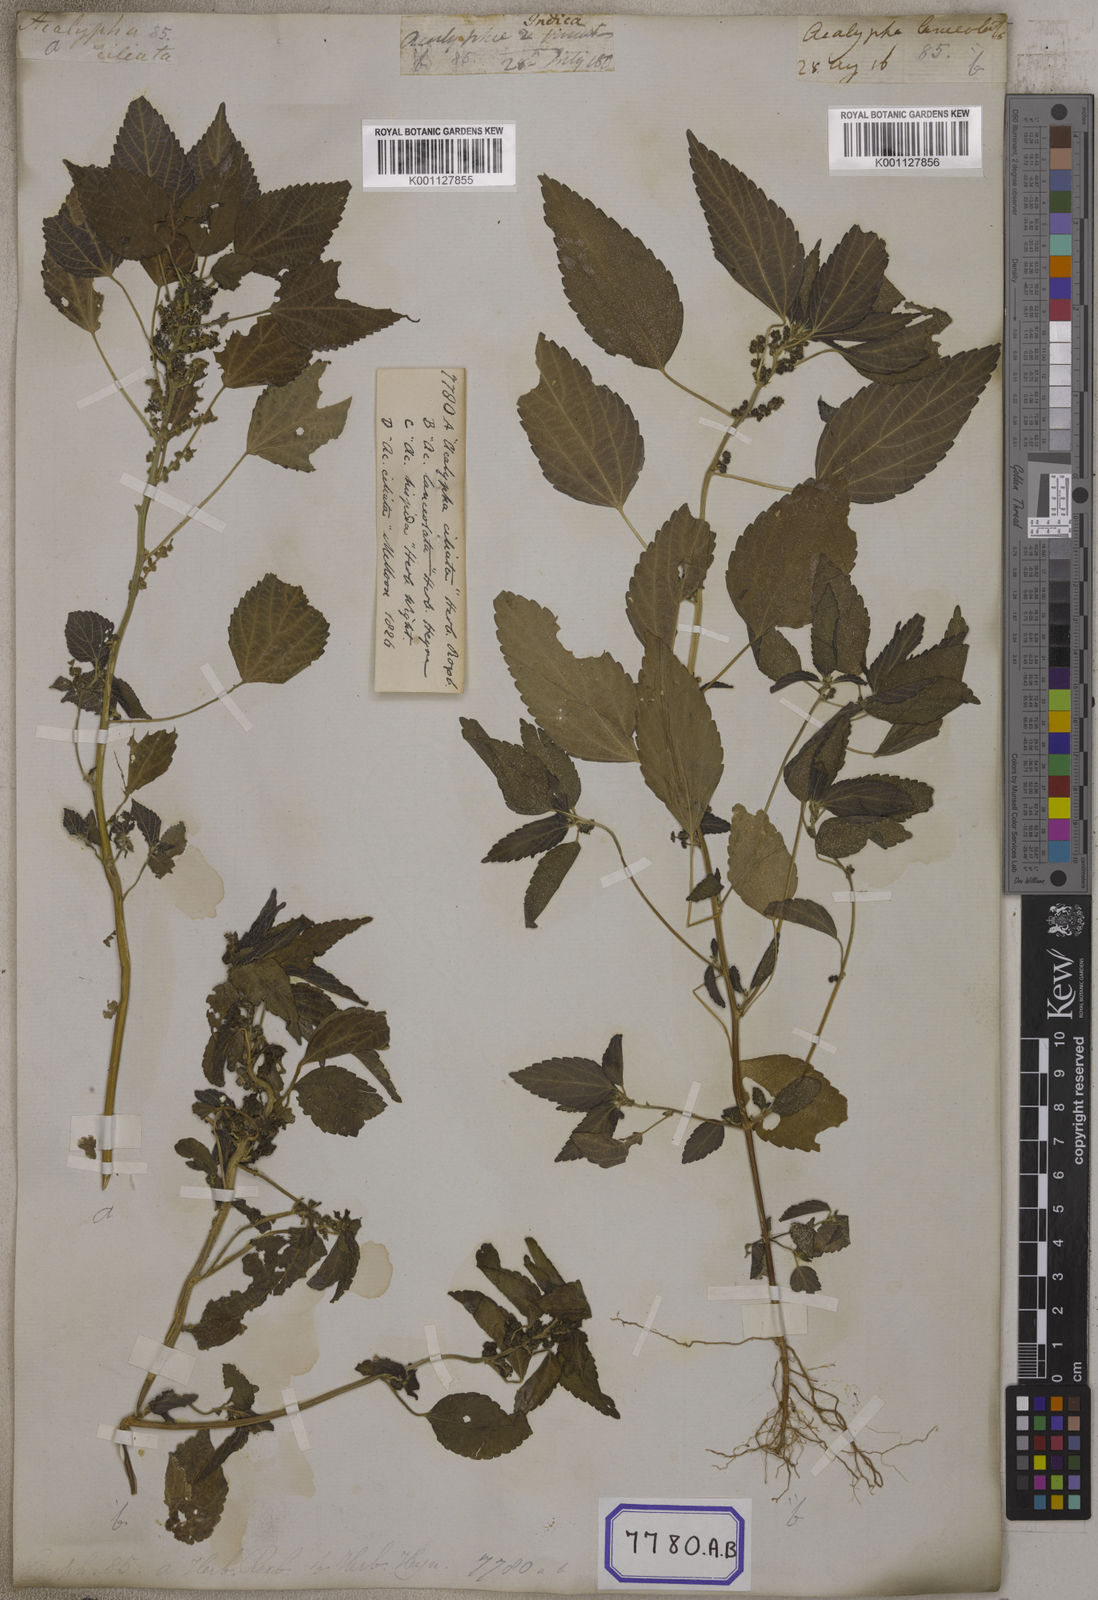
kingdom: Plantae
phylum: Tracheophyta
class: Magnoliopsida
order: Malpighiales
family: Euphorbiaceae
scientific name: Euphorbiaceae
